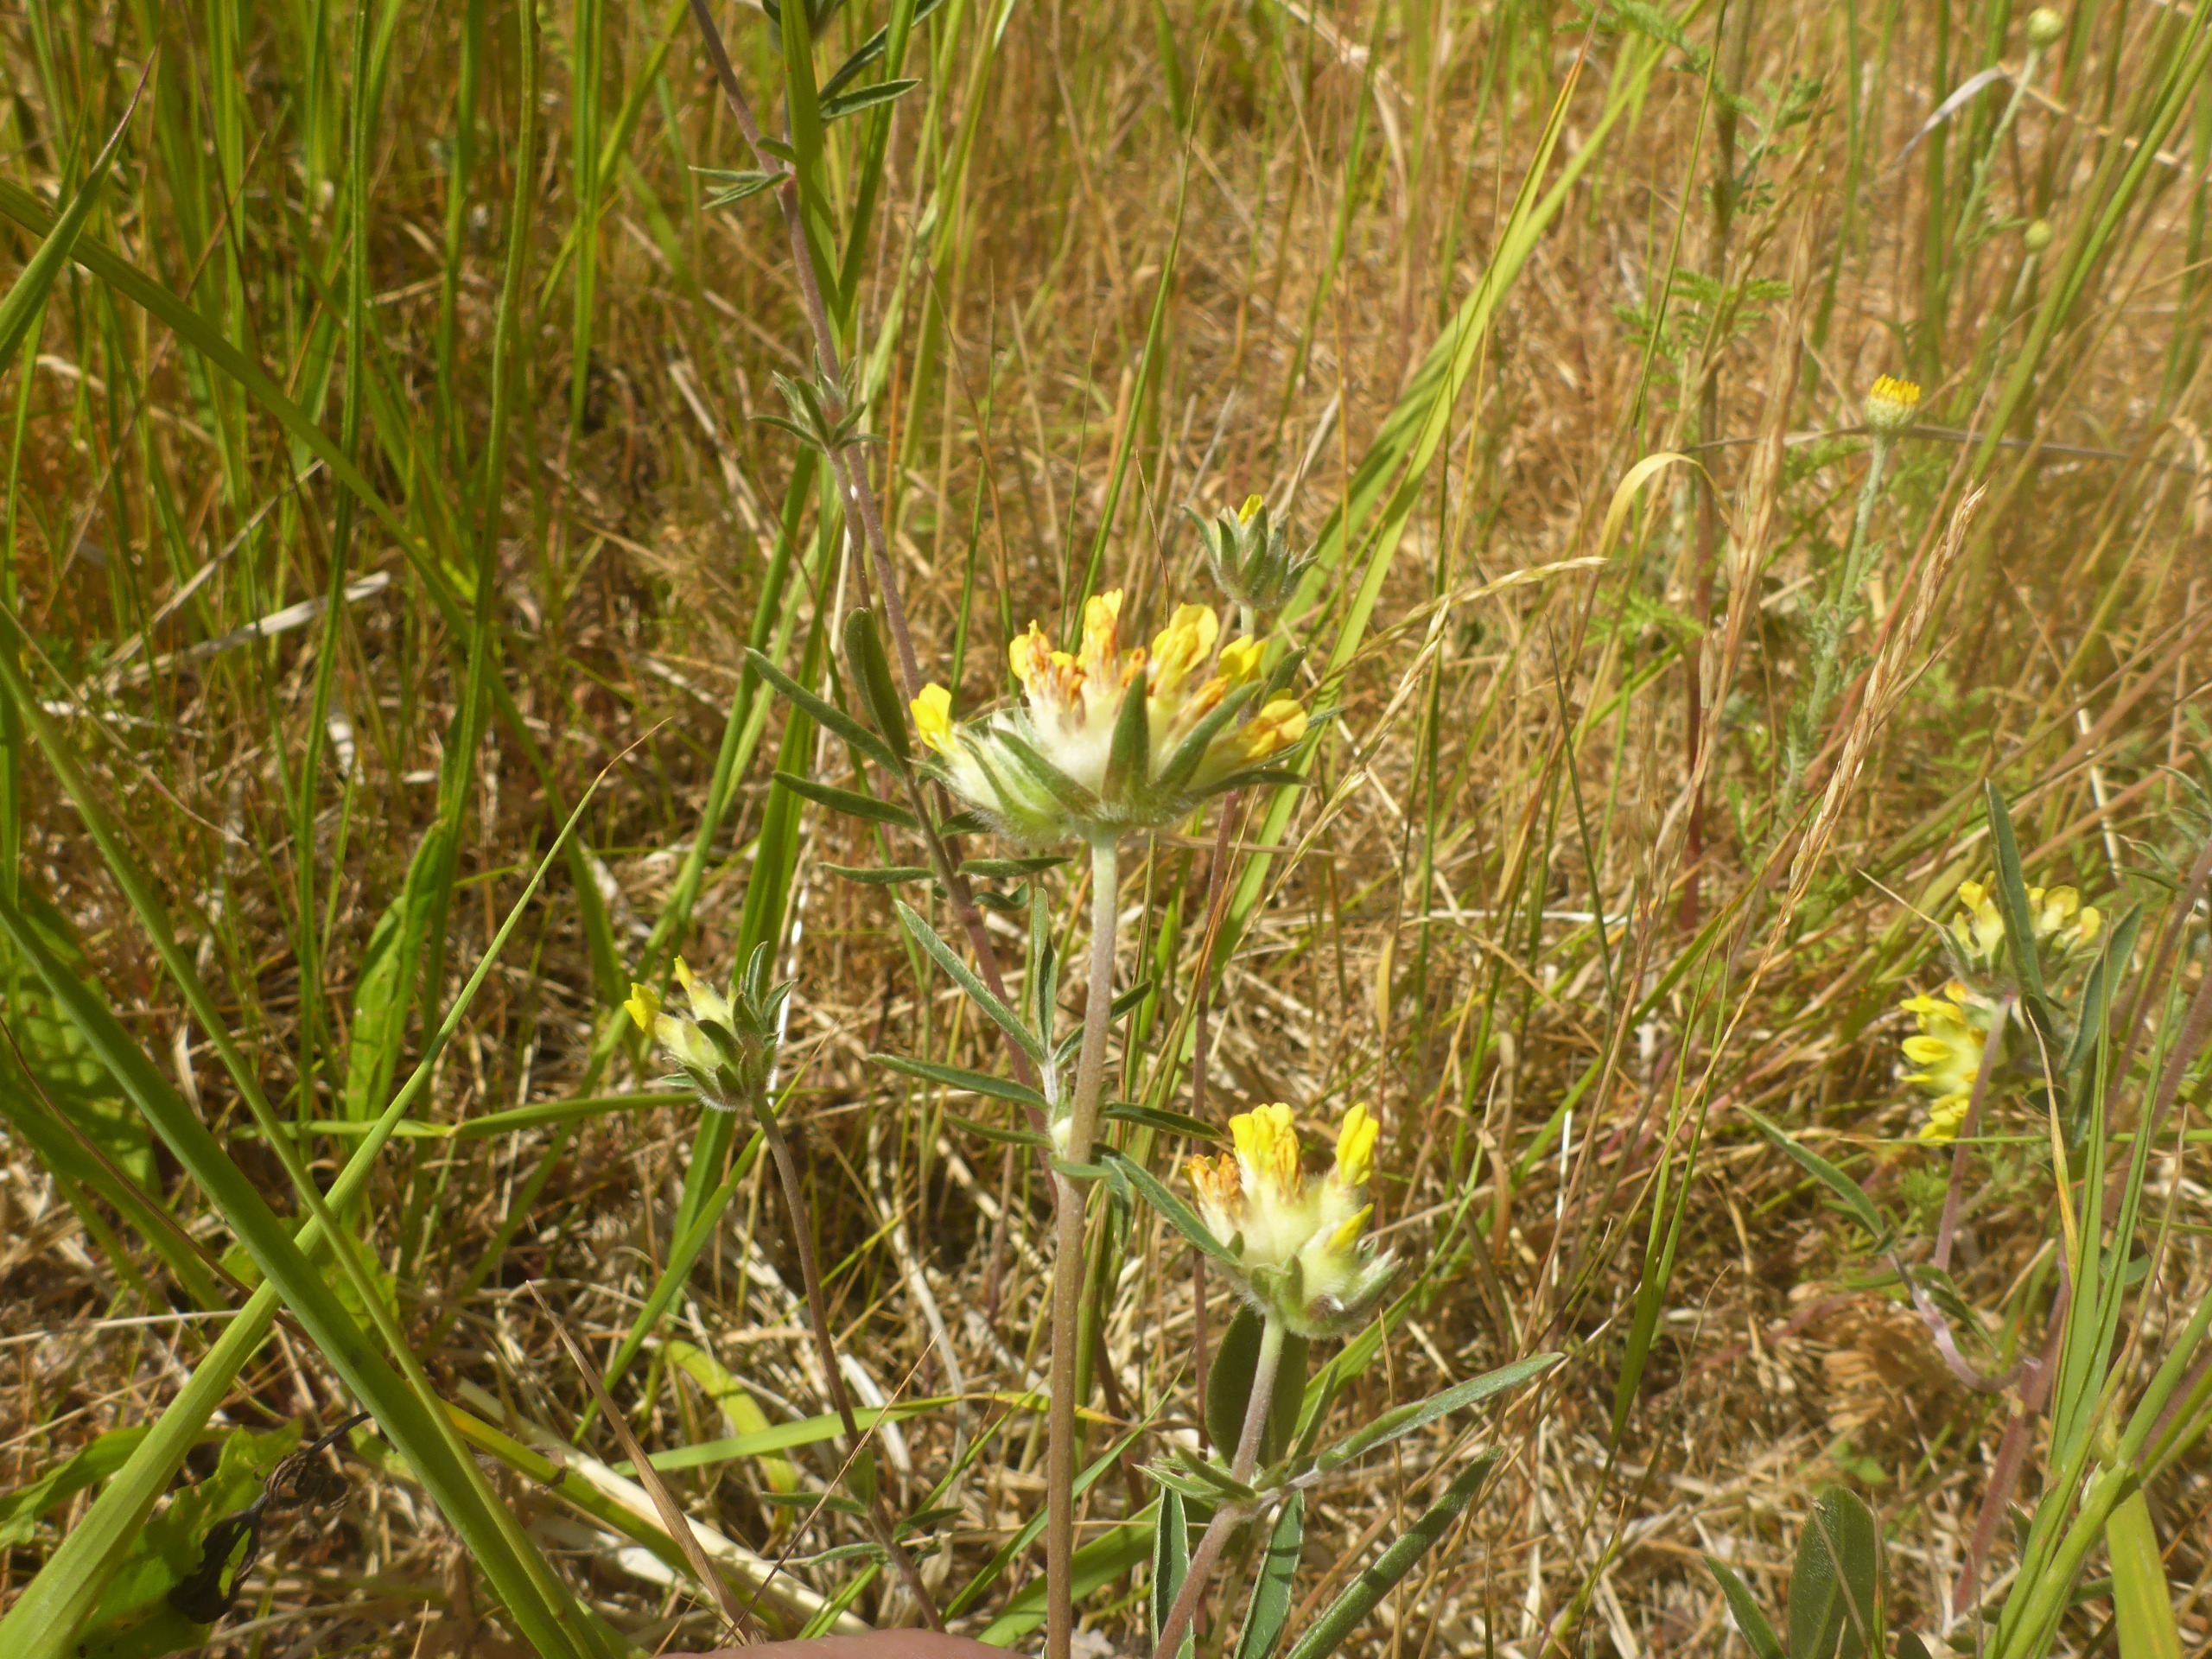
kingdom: Plantae
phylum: Tracheophyta
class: Magnoliopsida
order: Fabales
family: Fabaceae
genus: Anthyllis
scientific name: Anthyllis vulneraria
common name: Rundbælg
